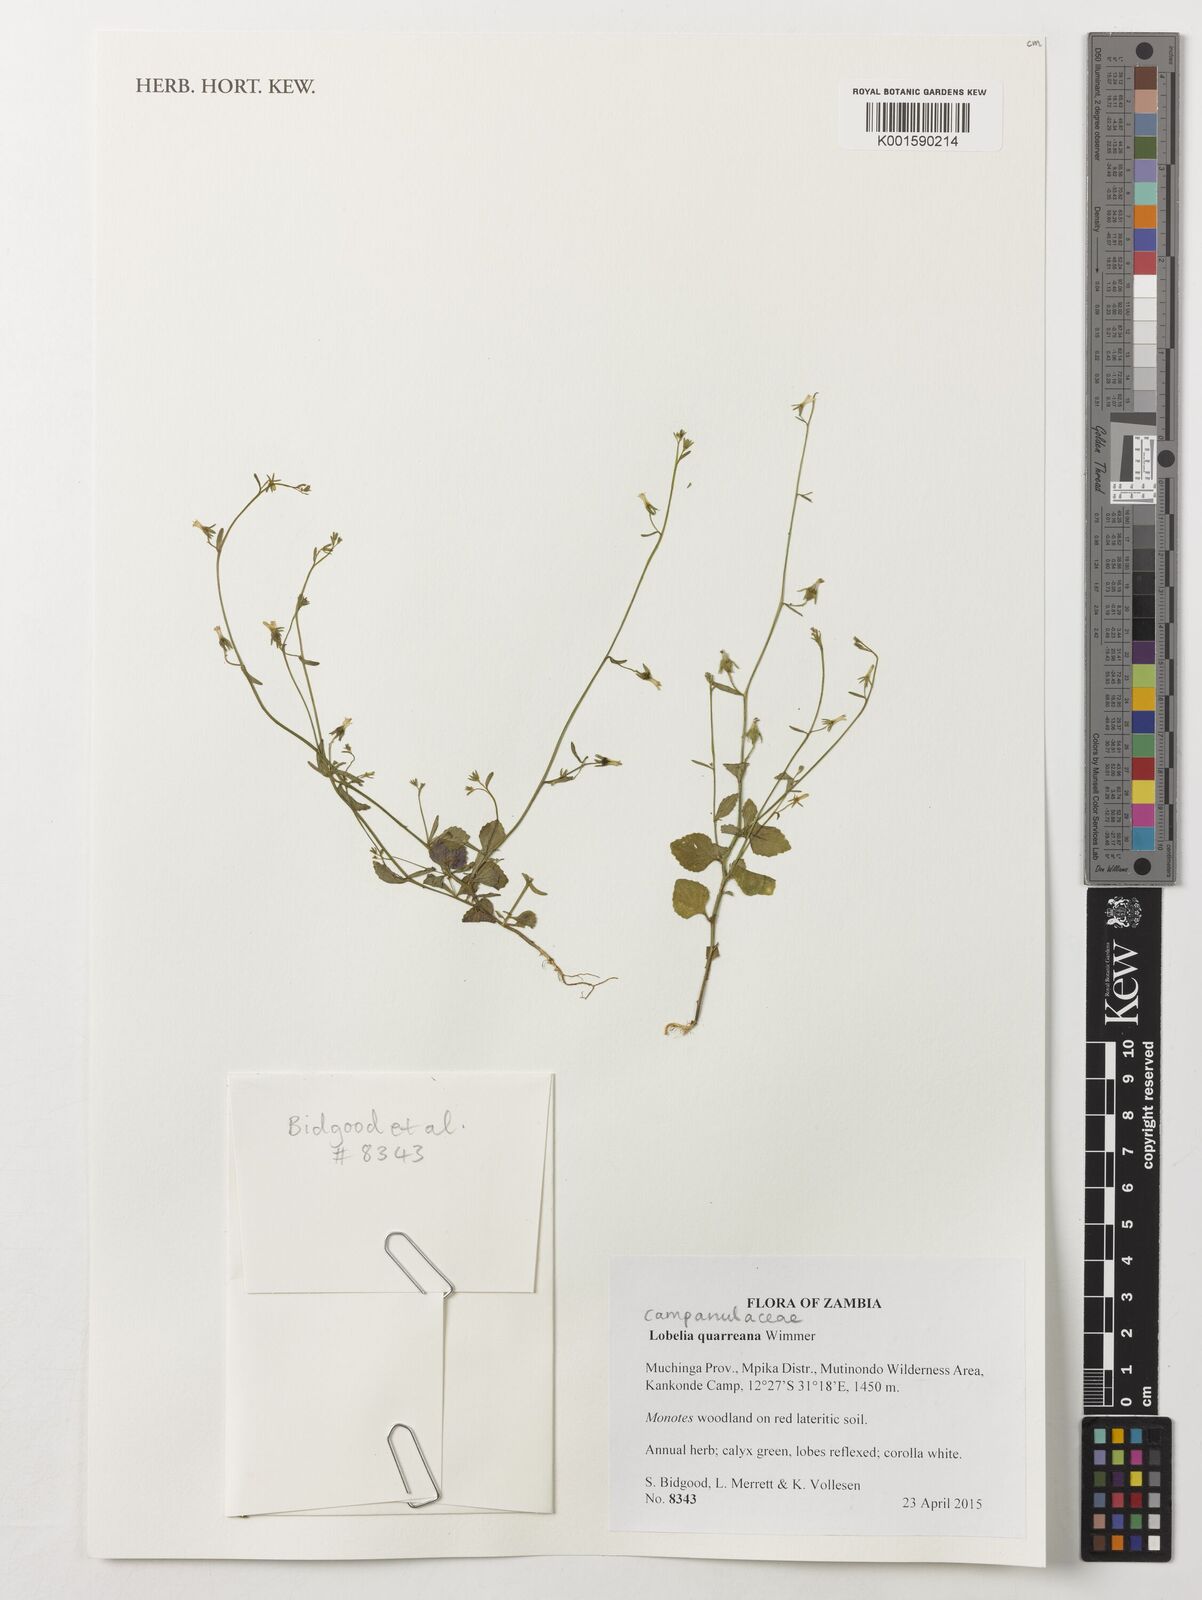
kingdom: Plantae
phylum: Tracheophyta
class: Magnoliopsida
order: Asterales
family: Campanulaceae
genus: Lobelia
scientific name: Lobelia quarreana
